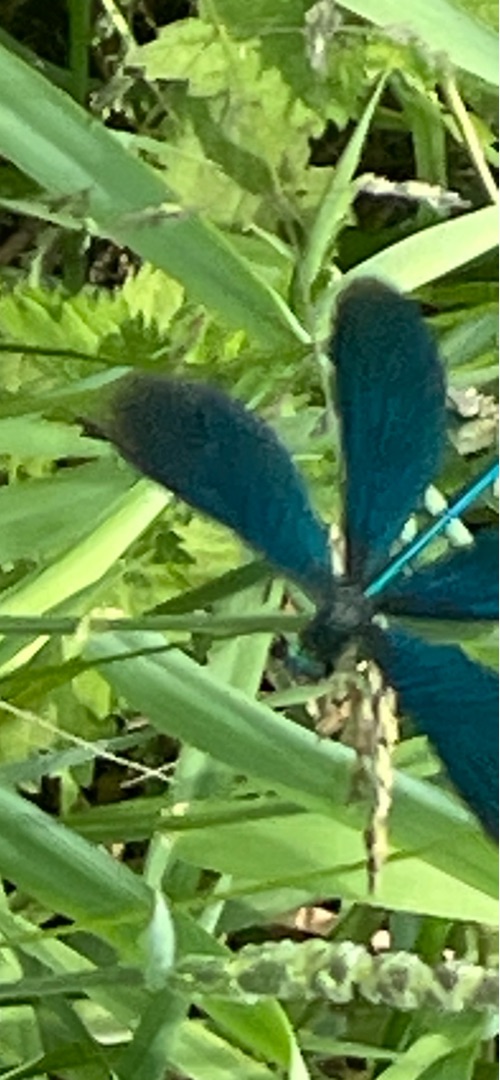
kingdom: Animalia
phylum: Arthropoda
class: Insecta
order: Odonata
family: Calopterygidae
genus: Calopteryx
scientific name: Calopteryx virgo
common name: Blåvinget pragtvandnymfe
